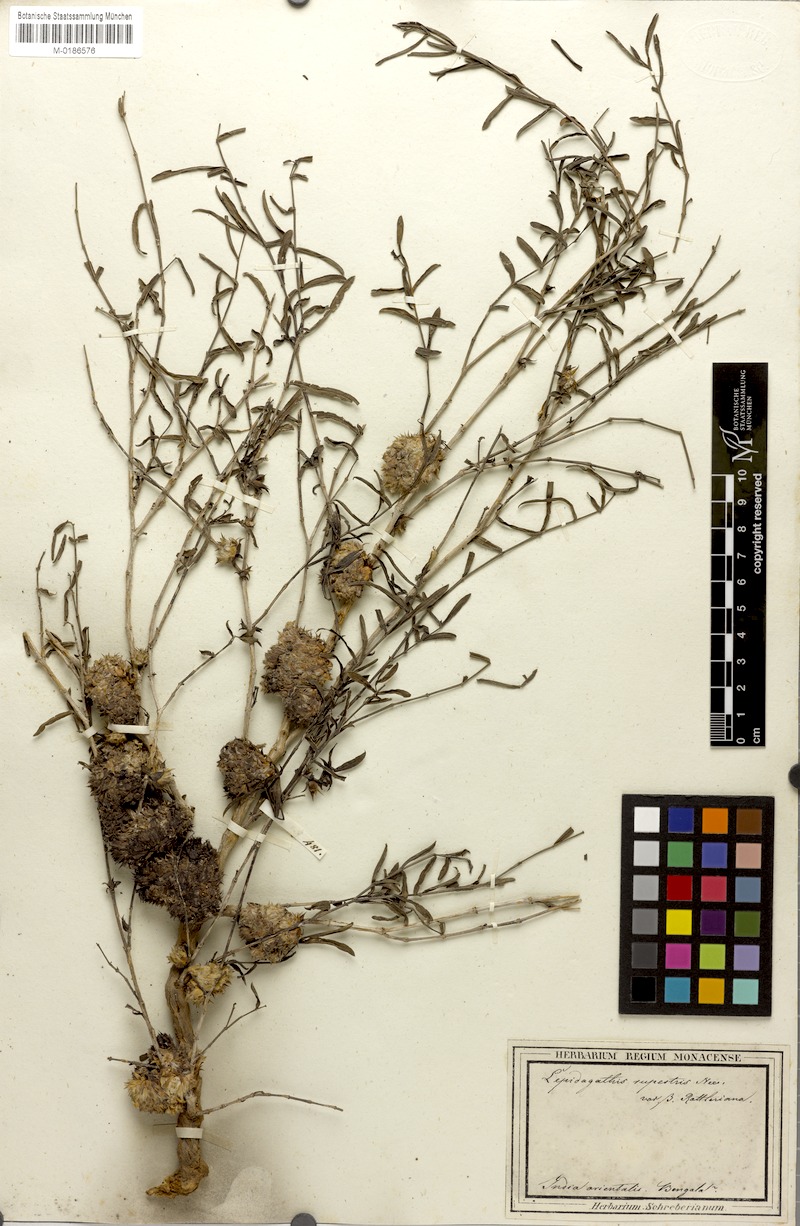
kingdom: Plantae
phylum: Tracheophyta
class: Magnoliopsida
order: Lamiales
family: Acanthaceae
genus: Lepidagathis
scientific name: Lepidagathis cristata
